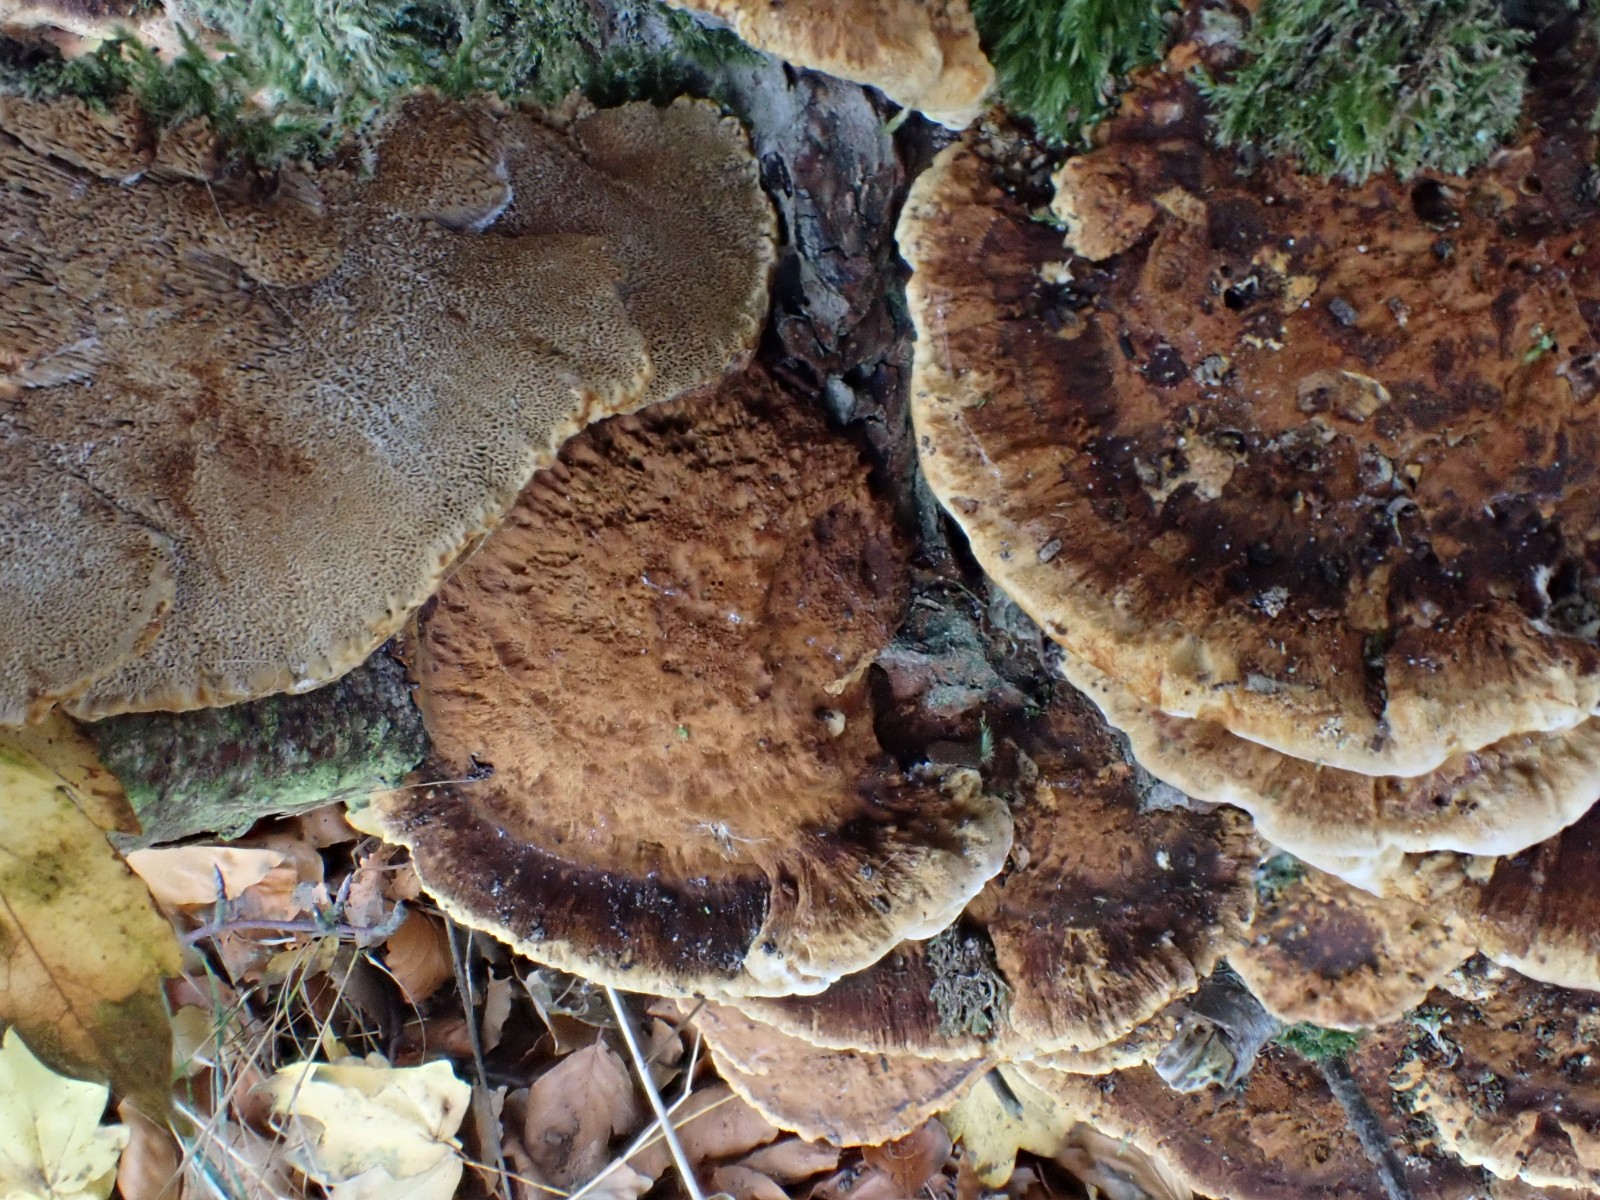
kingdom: Fungi
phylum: Basidiomycota
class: Agaricomycetes
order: Hymenochaetales
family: Hymenochaetaceae
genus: Xanthoporia
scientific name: Xanthoporia radiata
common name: elle-spejlporesvamp
